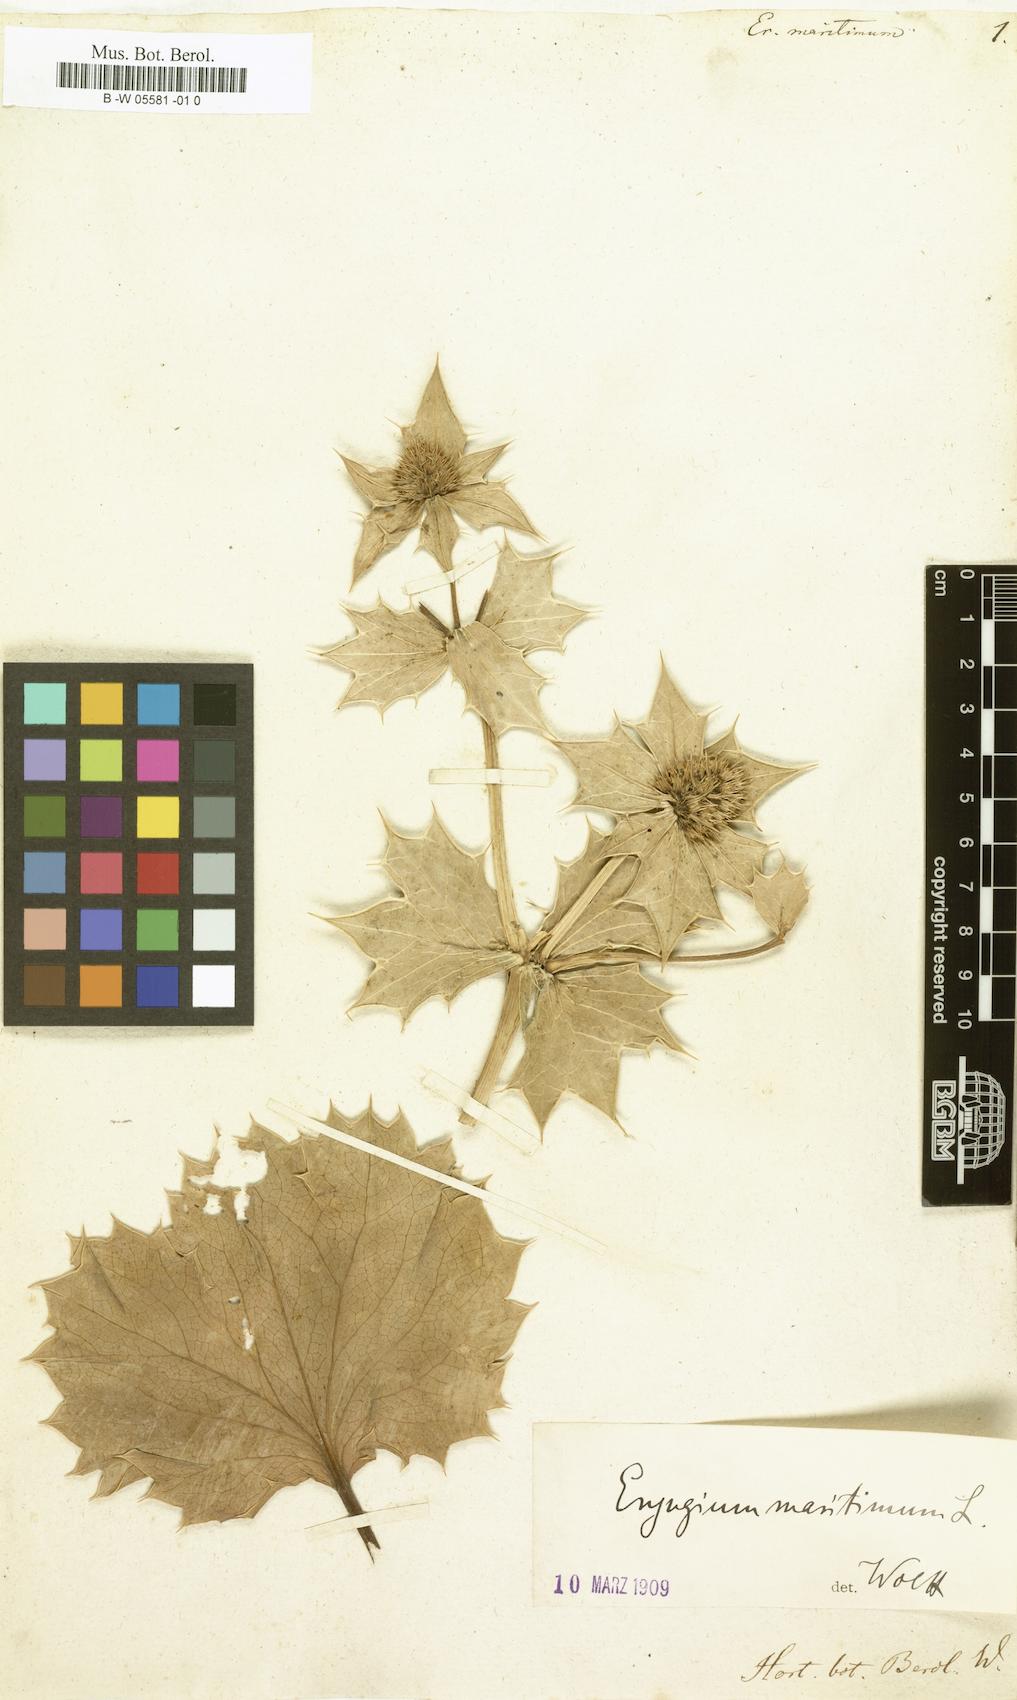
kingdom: Plantae
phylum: Tracheophyta
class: Magnoliopsida
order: Apiales
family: Apiaceae
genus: Eryngium
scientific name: Eryngium maritimum
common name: Sea-holly
